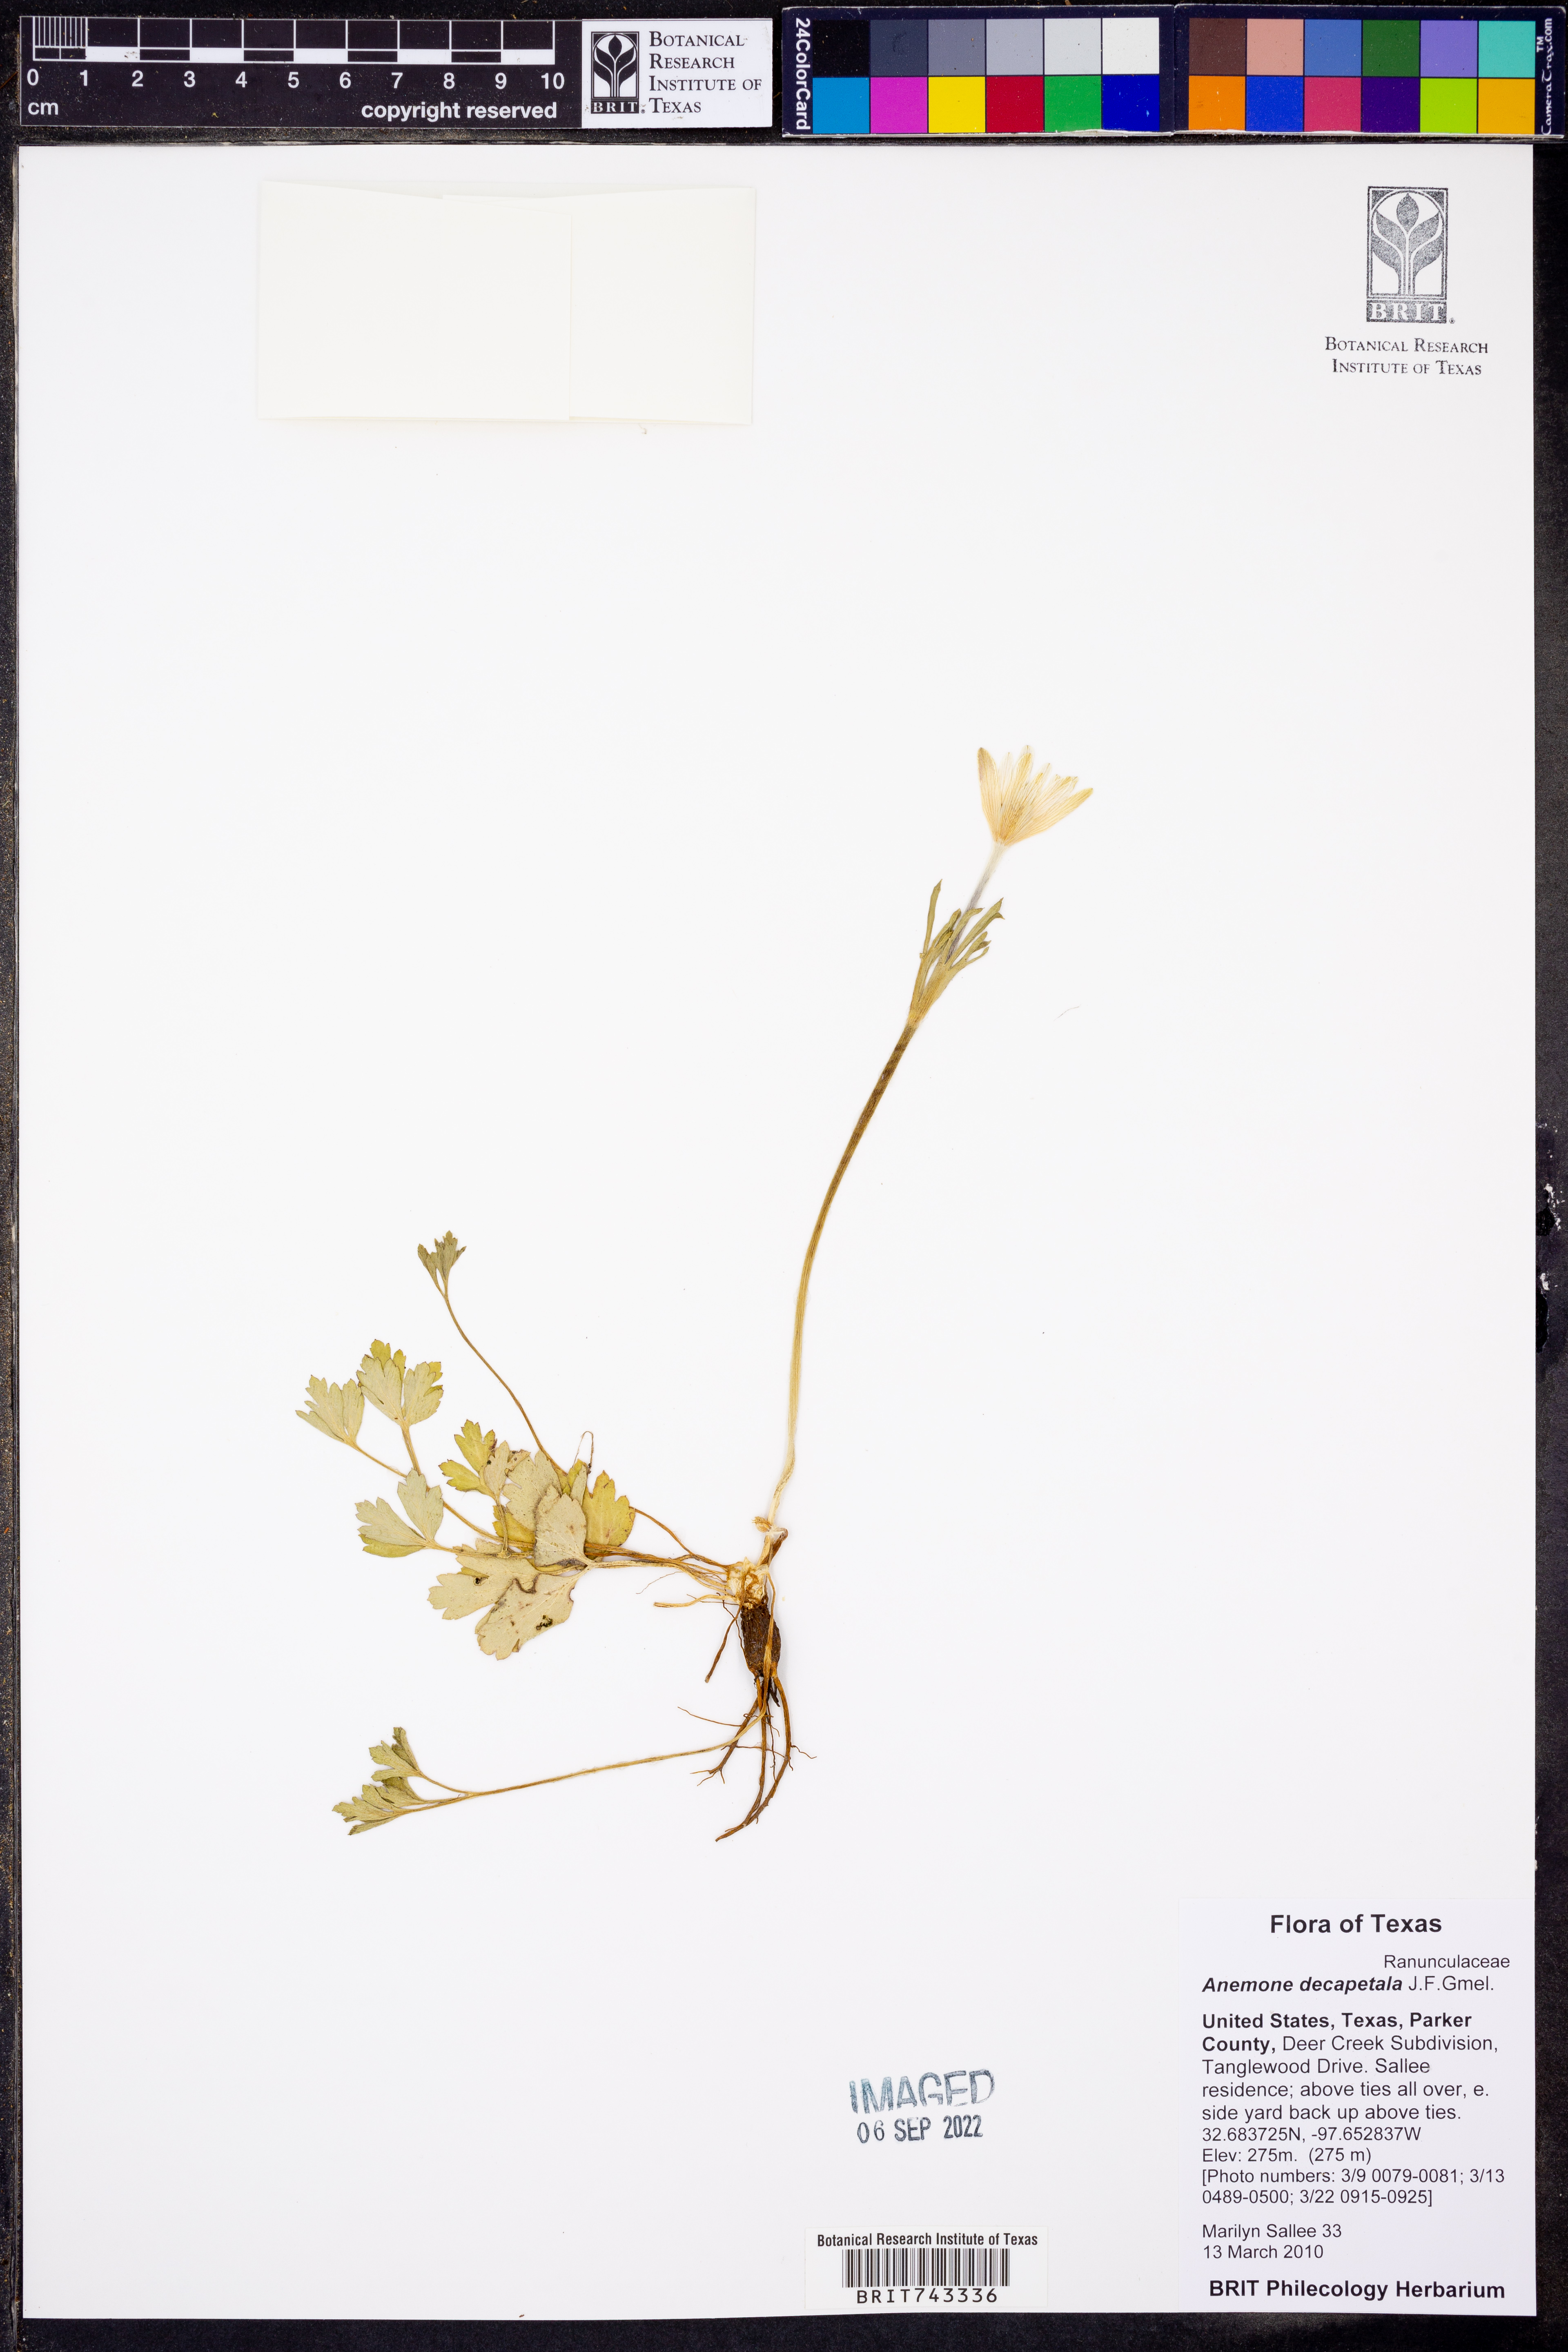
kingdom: Plantae
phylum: Tracheophyta
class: Magnoliopsida
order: Ranunculales
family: Ranunculaceae
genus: Anemone
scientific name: Anemone decapetala
